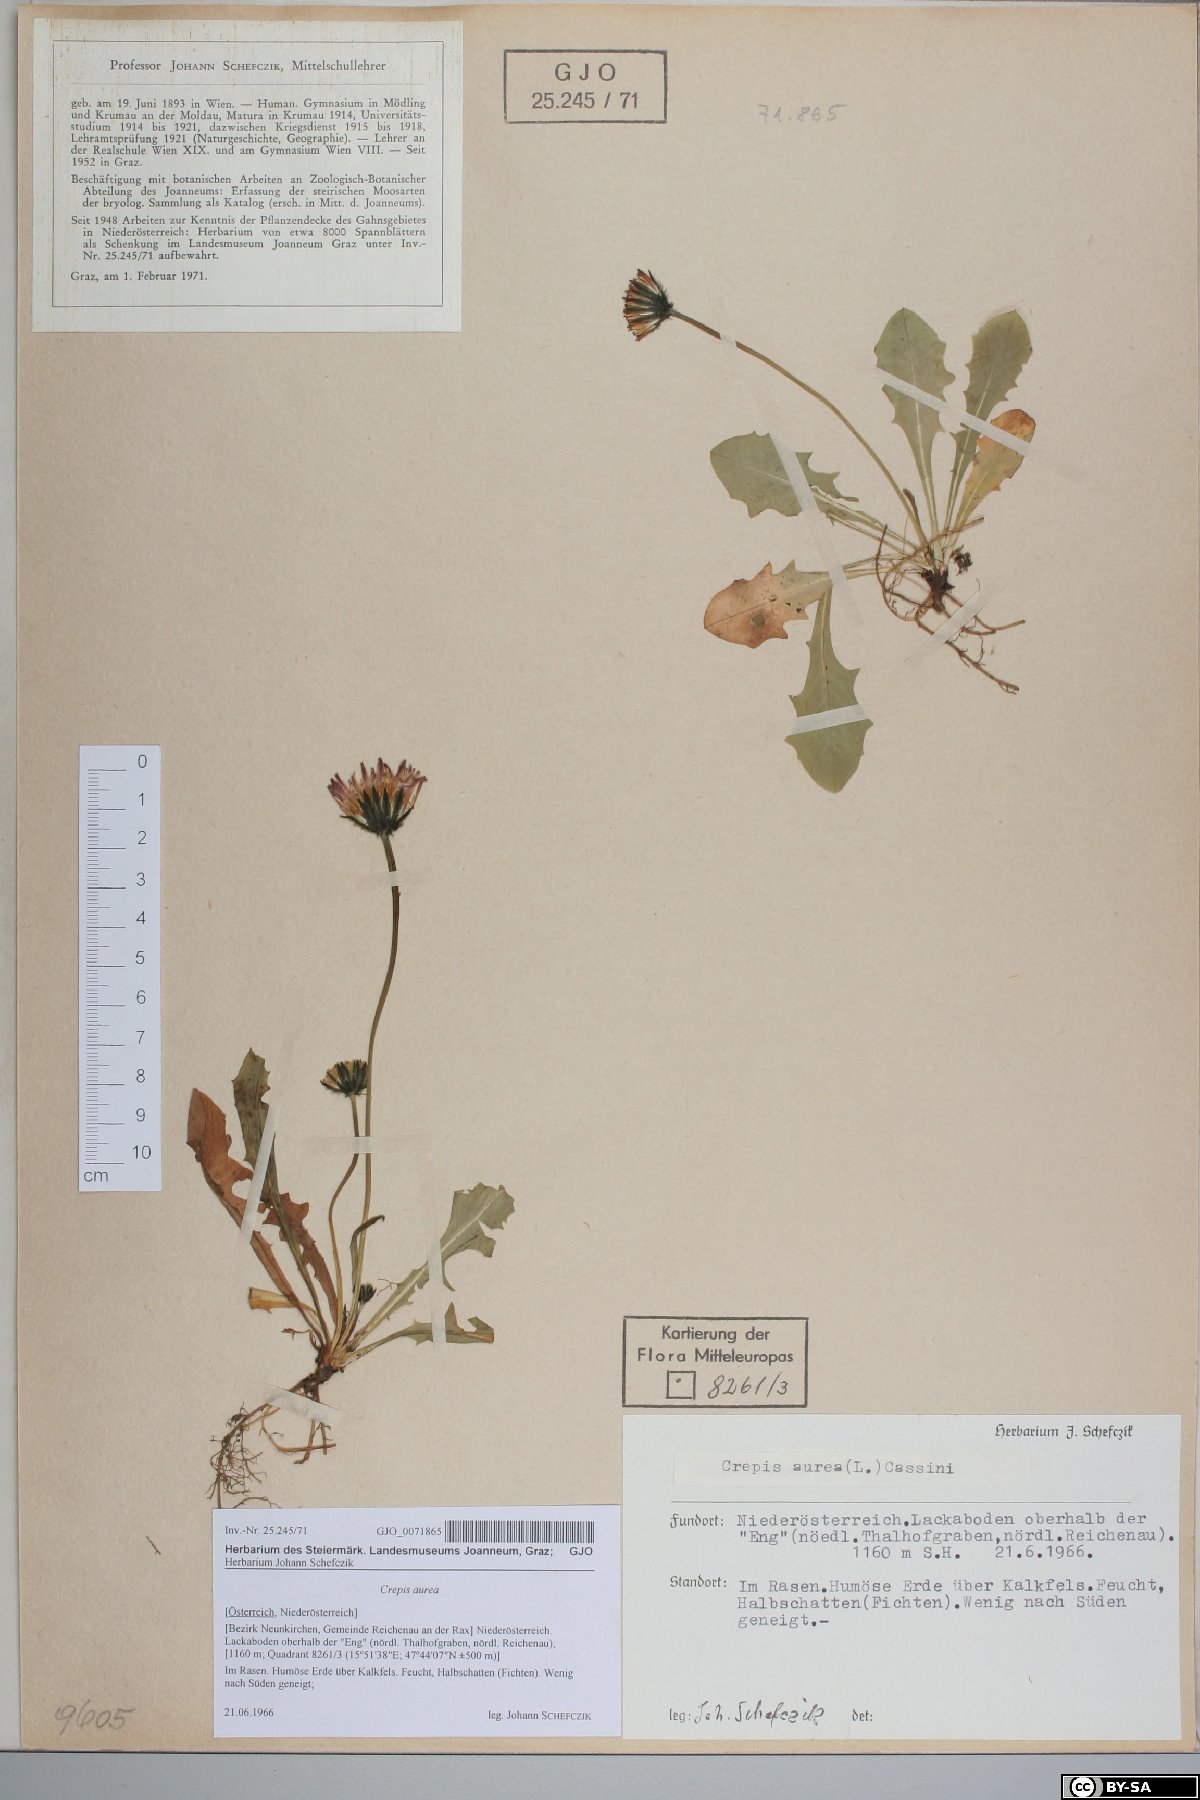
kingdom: Plantae
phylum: Tracheophyta
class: Magnoliopsida
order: Asterales
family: Asteraceae
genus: Crepis
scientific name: Crepis aurea
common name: Golden hawk's-beard
